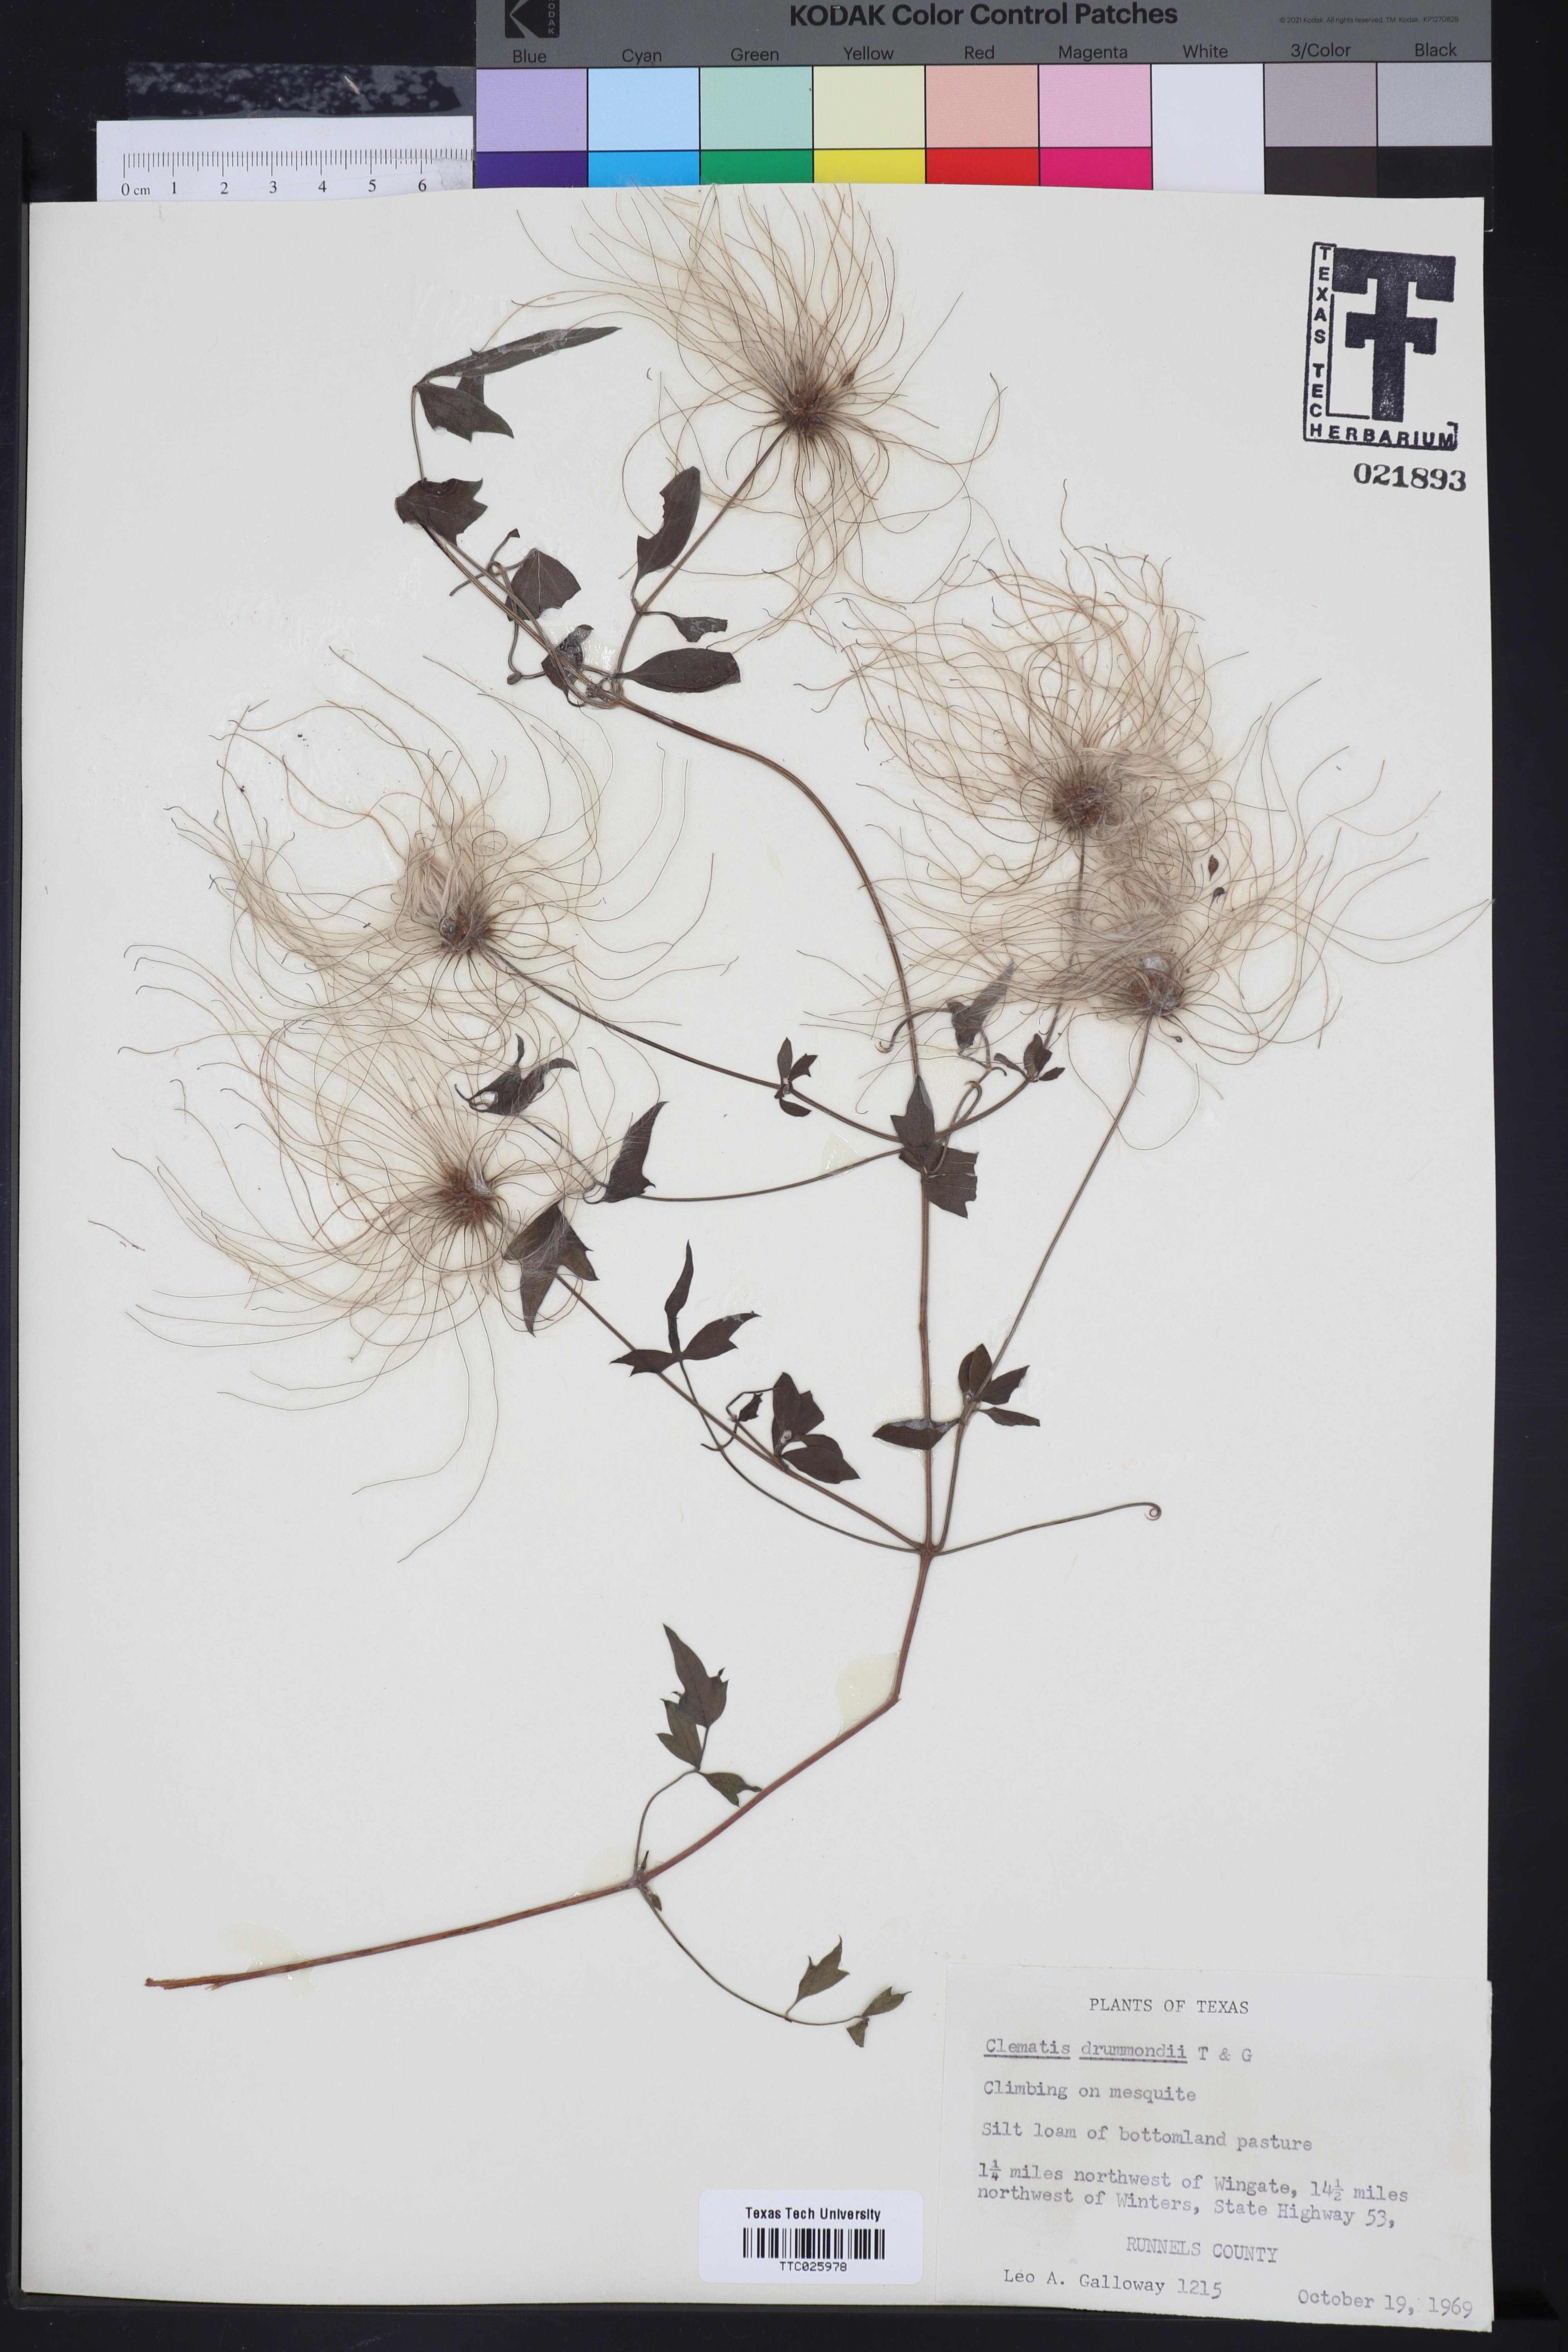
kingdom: Plantae
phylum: Tracheophyta
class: Magnoliopsida
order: Ranunculales
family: Ranunculaceae
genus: Clematis
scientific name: Clematis drummondii
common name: Texas virgin's bower
